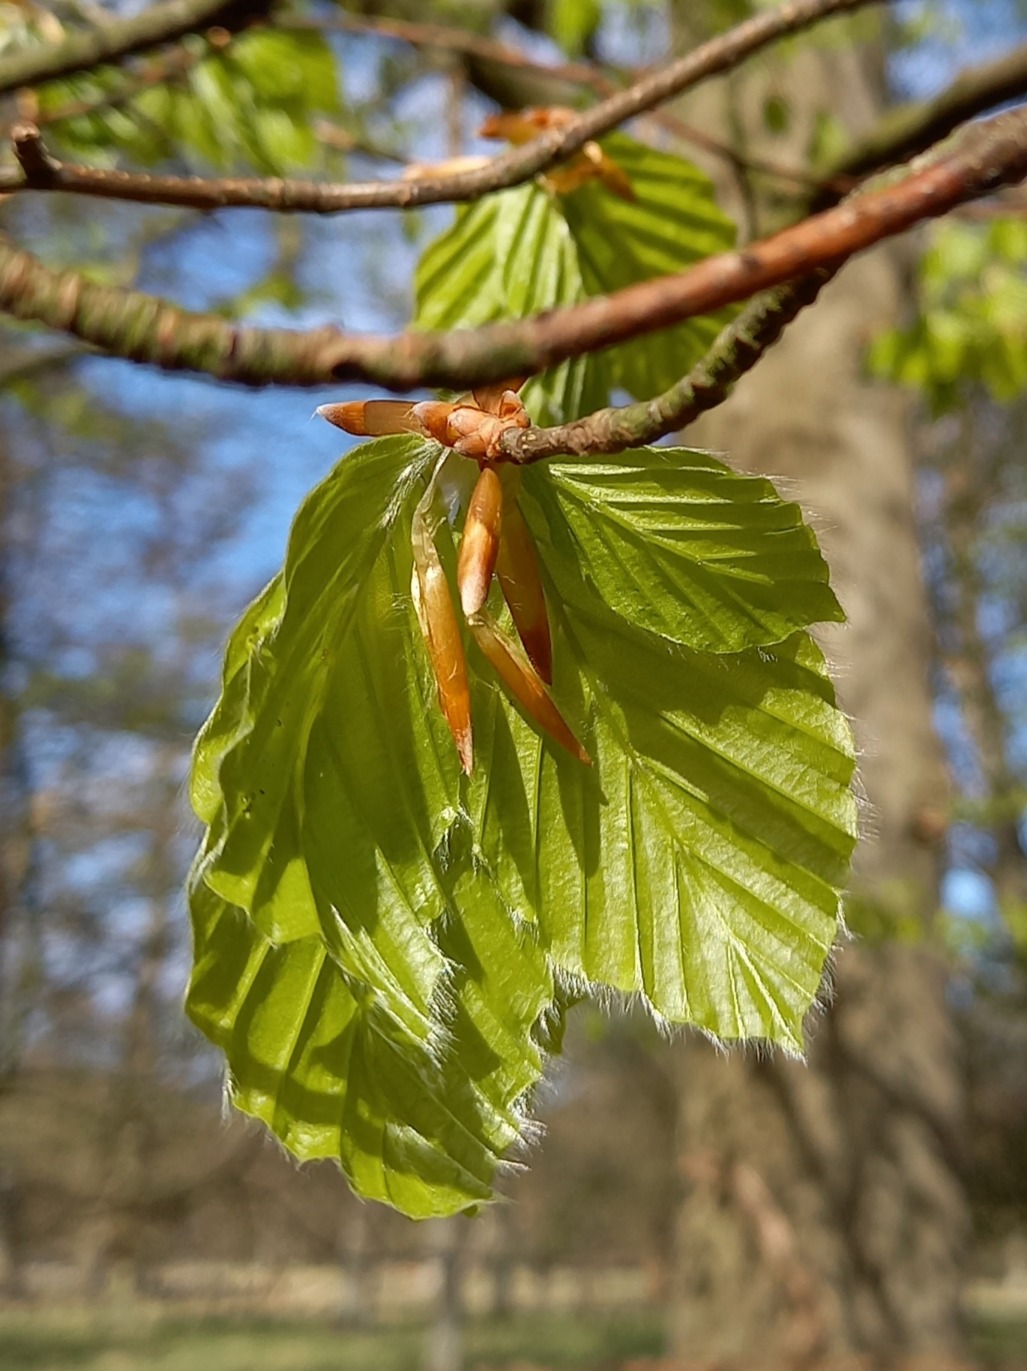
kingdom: Plantae
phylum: Tracheophyta
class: Magnoliopsida
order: Fagales
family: Fagaceae
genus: Fagus
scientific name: Fagus sylvatica
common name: Bøg
